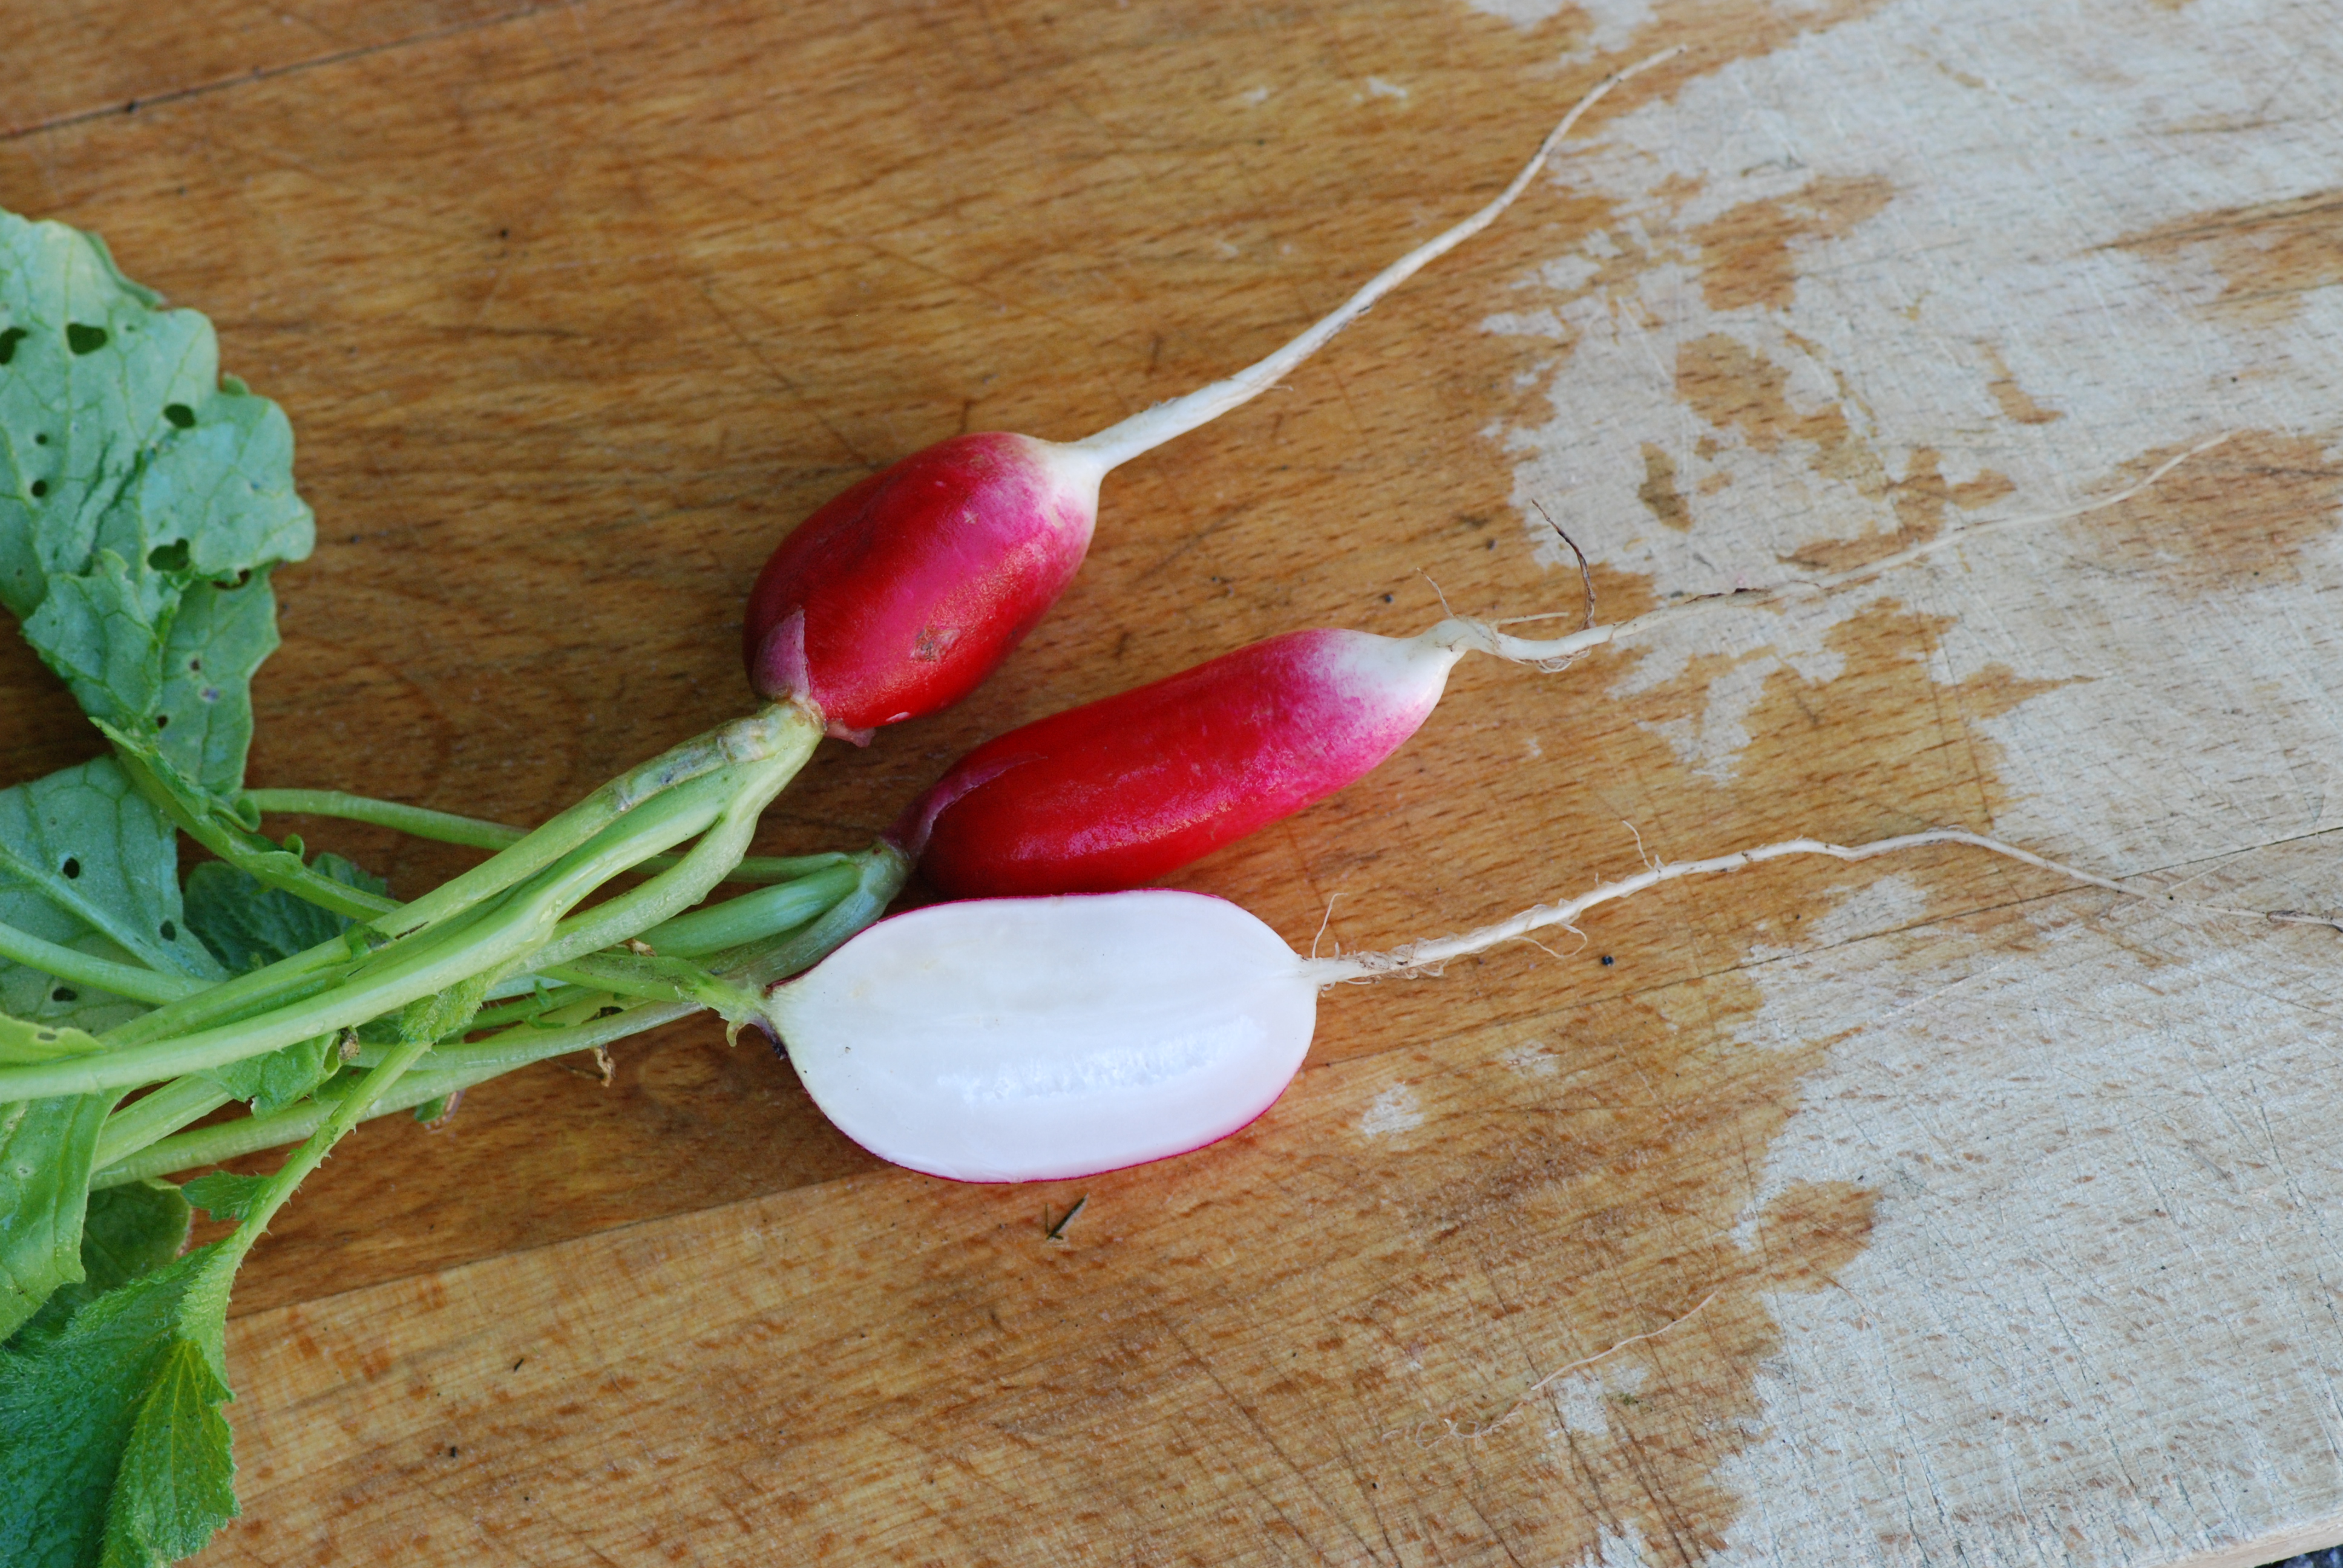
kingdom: Plantae
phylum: Tracheophyta
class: Magnoliopsida
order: Brassicales
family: Brassicaceae
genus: Raphanus
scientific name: Raphanus sativus
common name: Cultivated radish
